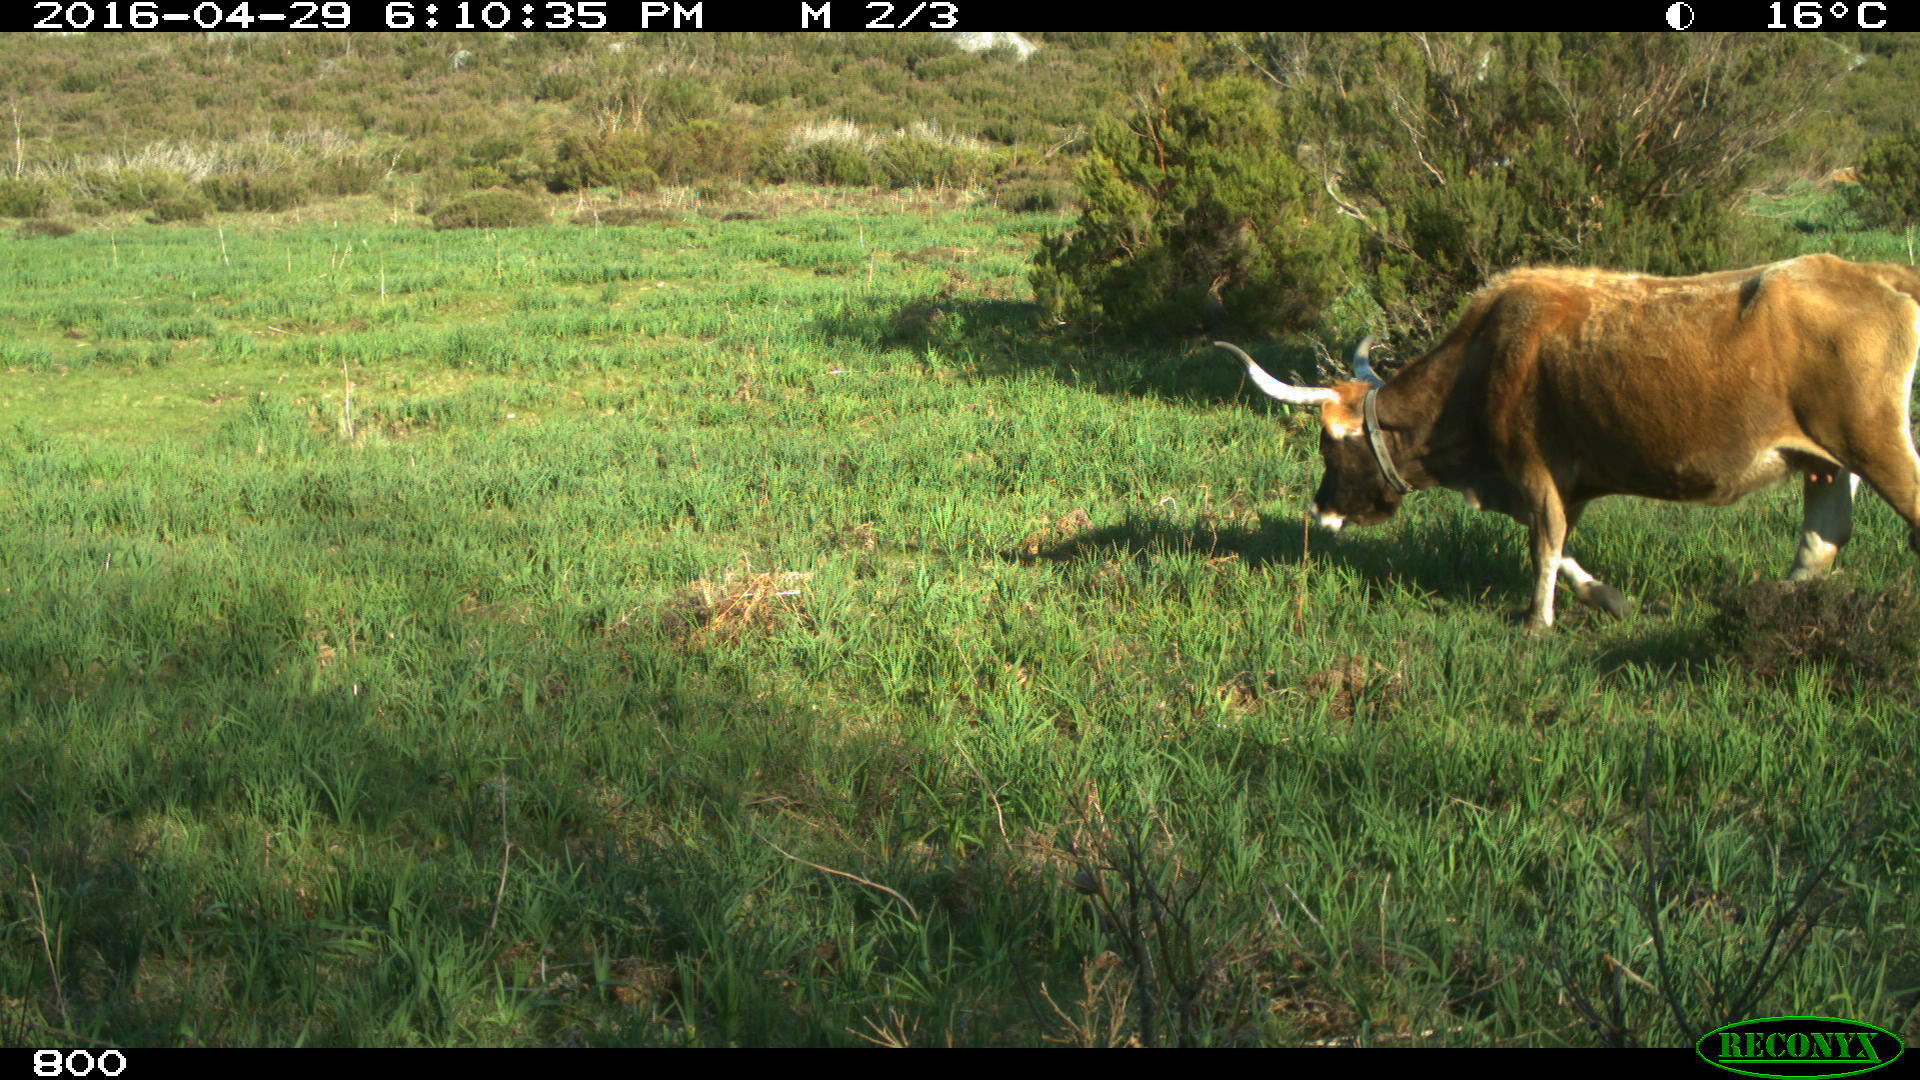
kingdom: Animalia
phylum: Chordata
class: Mammalia
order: Artiodactyla
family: Bovidae
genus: Bos
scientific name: Bos taurus
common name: Domesticated cattle
